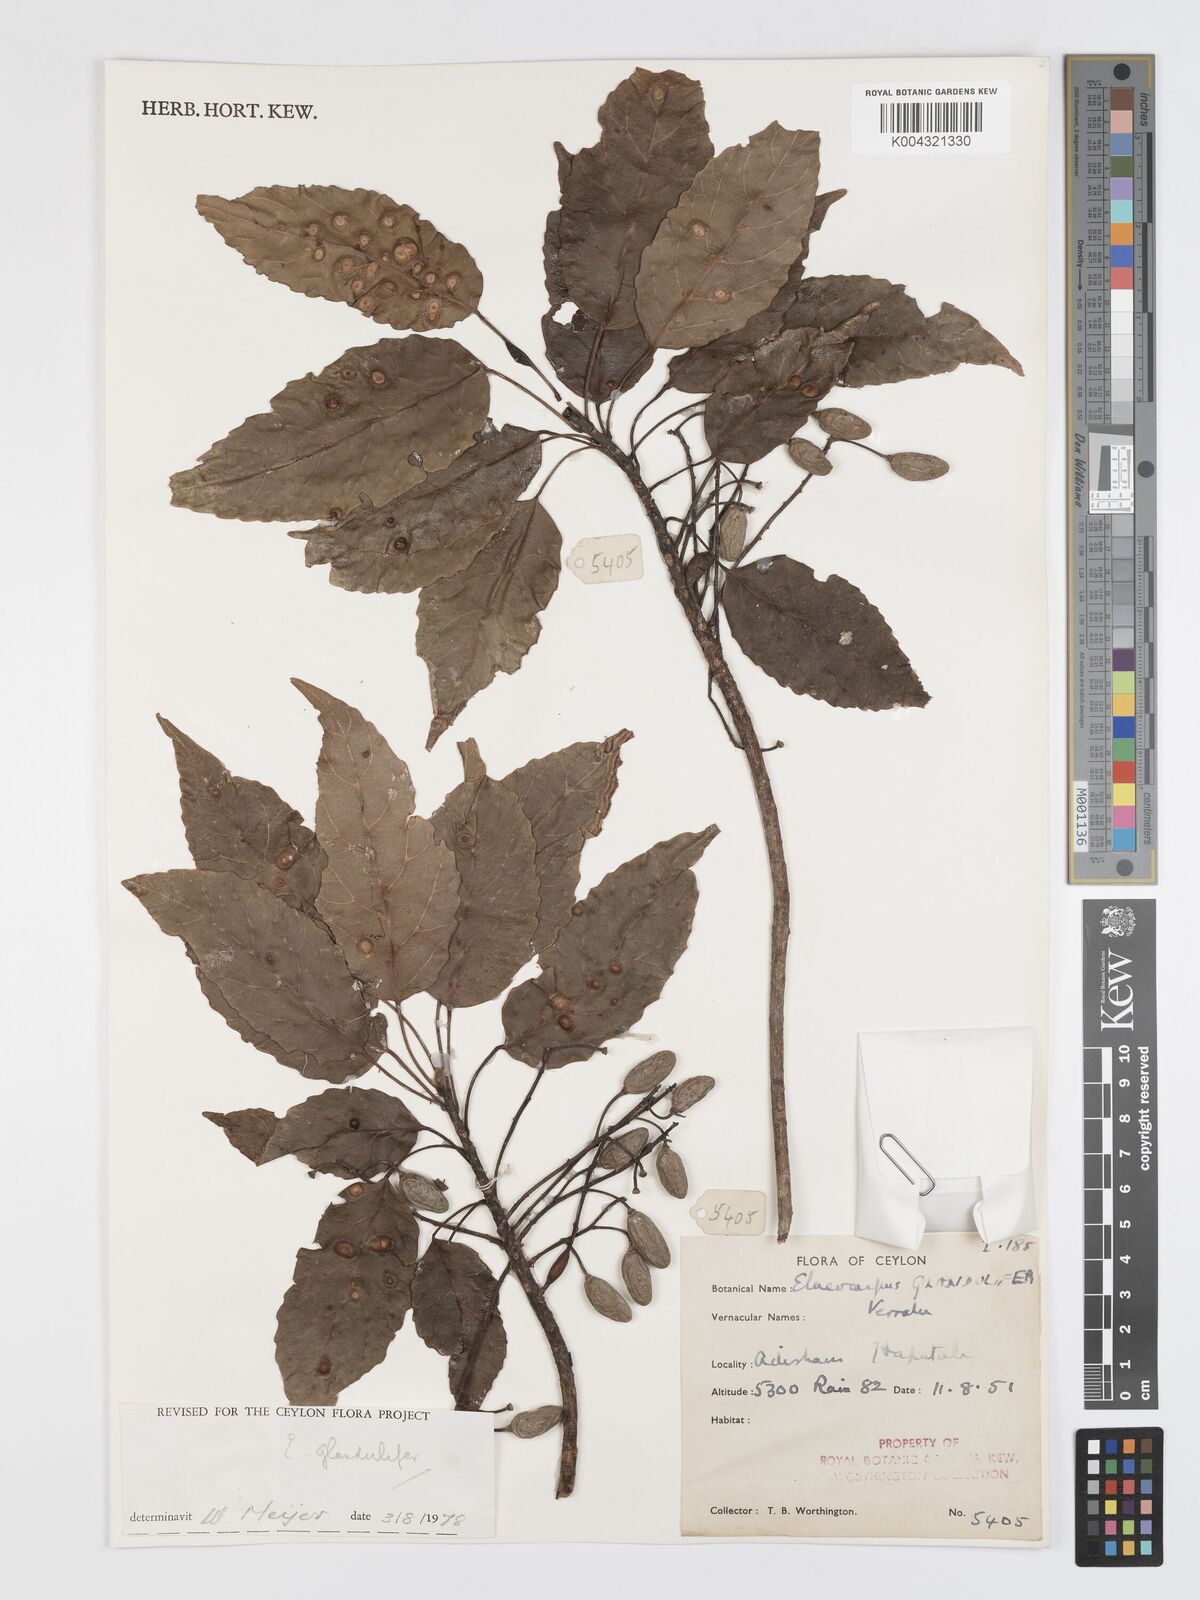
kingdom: Plantae
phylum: Tracheophyta
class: Magnoliopsida
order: Oxalidales
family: Elaeocarpaceae
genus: Elaeocarpus
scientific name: Elaeocarpus glandulifer
